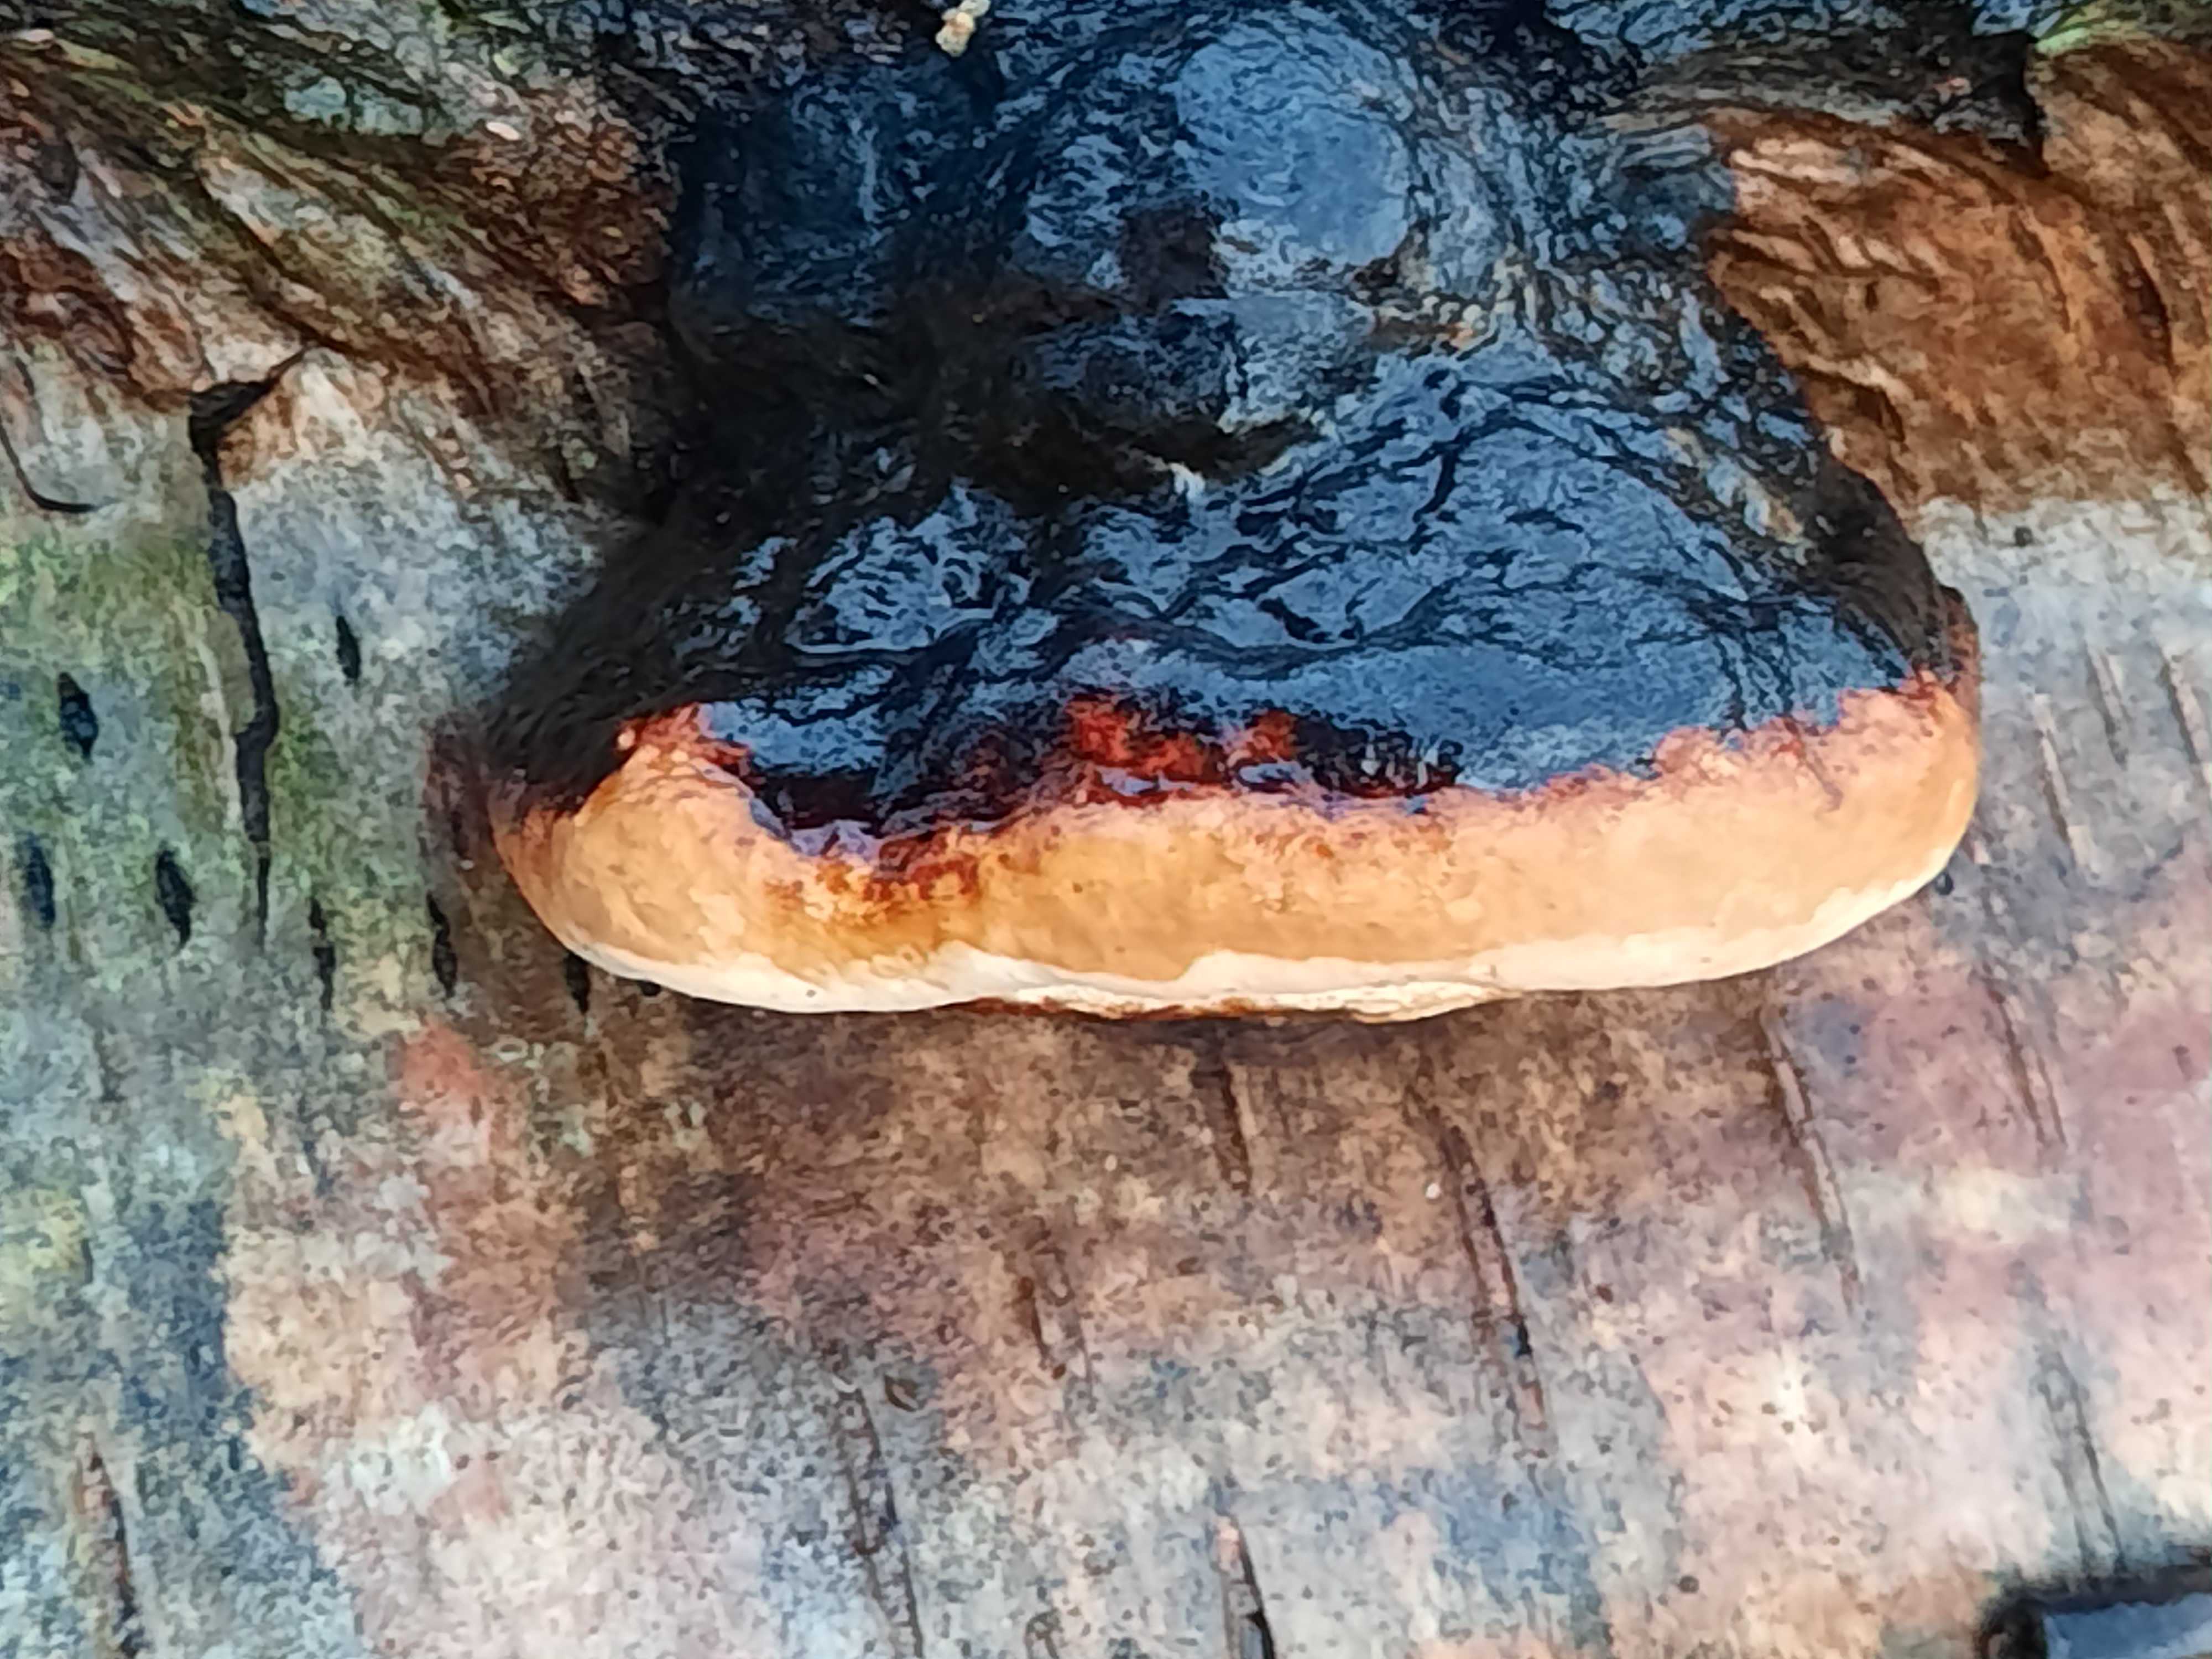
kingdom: Fungi
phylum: Basidiomycota
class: Agaricomycetes
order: Polyporales
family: Fomitopsidaceae
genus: Fomitopsis
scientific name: Fomitopsis pinicola
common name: randbæltet hovporesvamp
